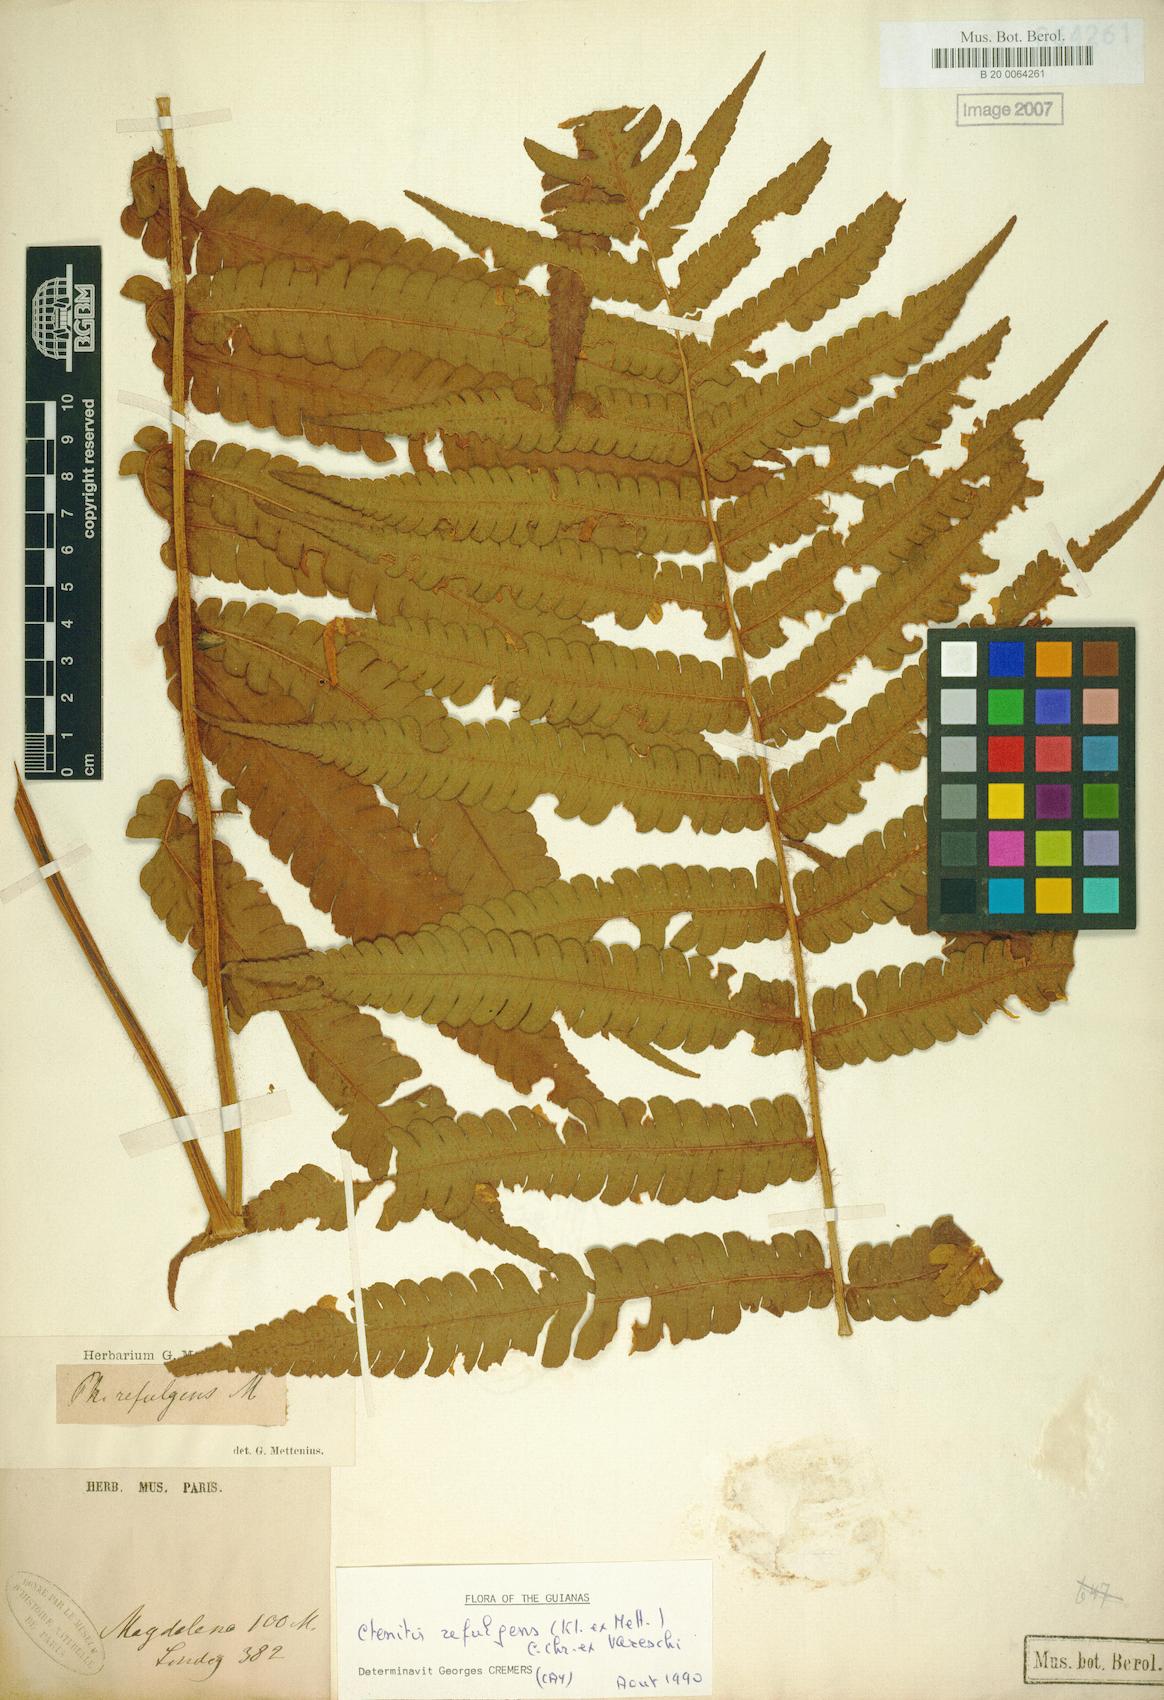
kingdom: Plantae
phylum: Tracheophyta
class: Polypodiopsida
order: Polypodiales
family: Dryopteridaceae
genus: Ctenitis
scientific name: Ctenitis refulgens
